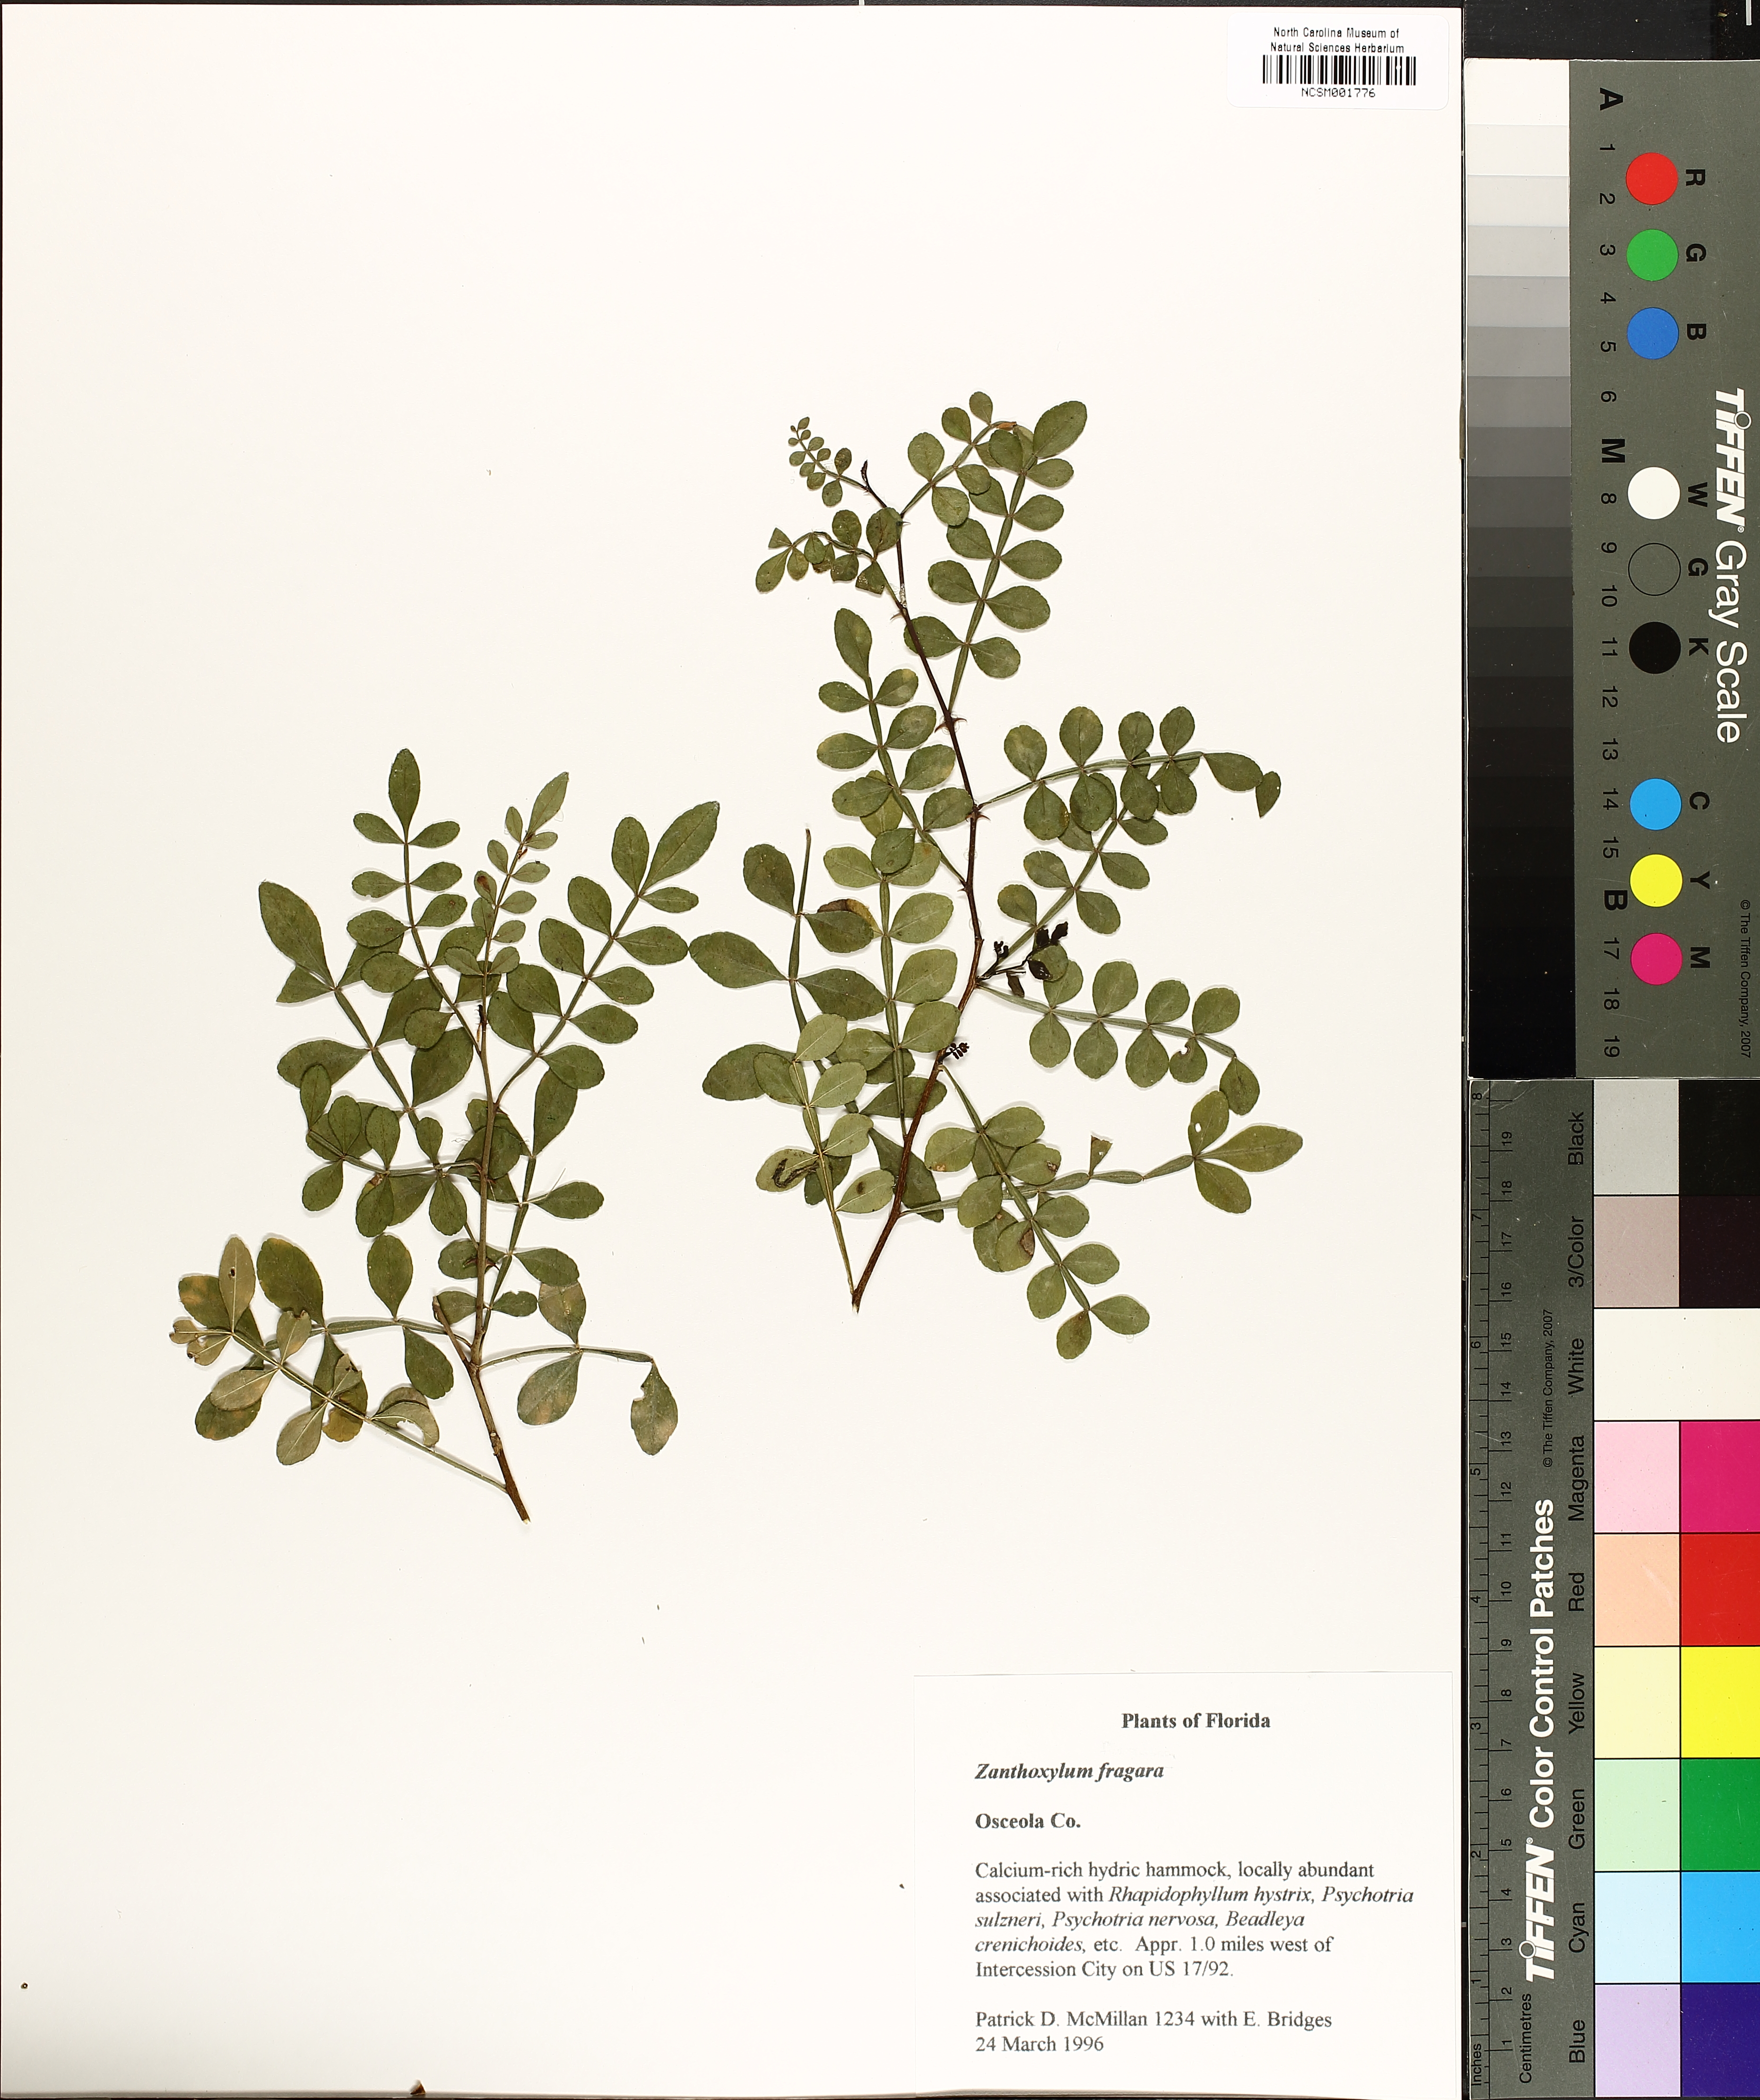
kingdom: Plantae
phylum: Tracheophyta
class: Magnoliopsida
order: Sapindales
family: Rutaceae
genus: Zanthoxylum
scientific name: Zanthoxylum fagara
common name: Lime prickly-ash
